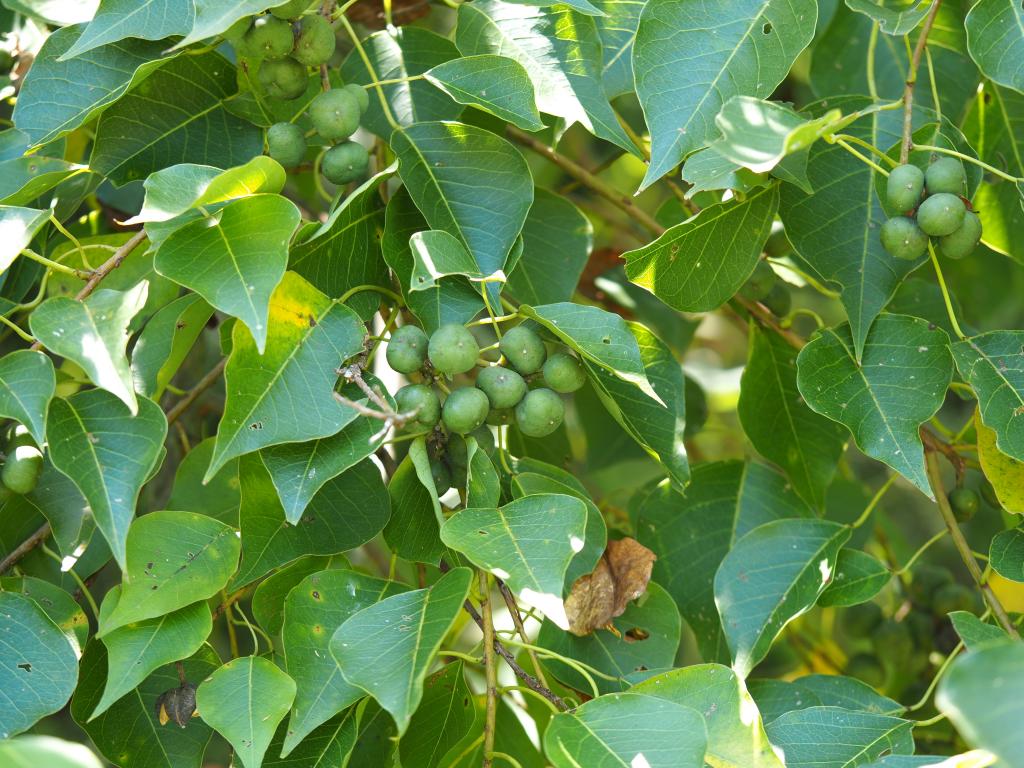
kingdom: Plantae
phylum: Tracheophyta
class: Magnoliopsida
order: Malpighiales
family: Euphorbiaceae
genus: Triadica
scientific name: Triadica sebifera
